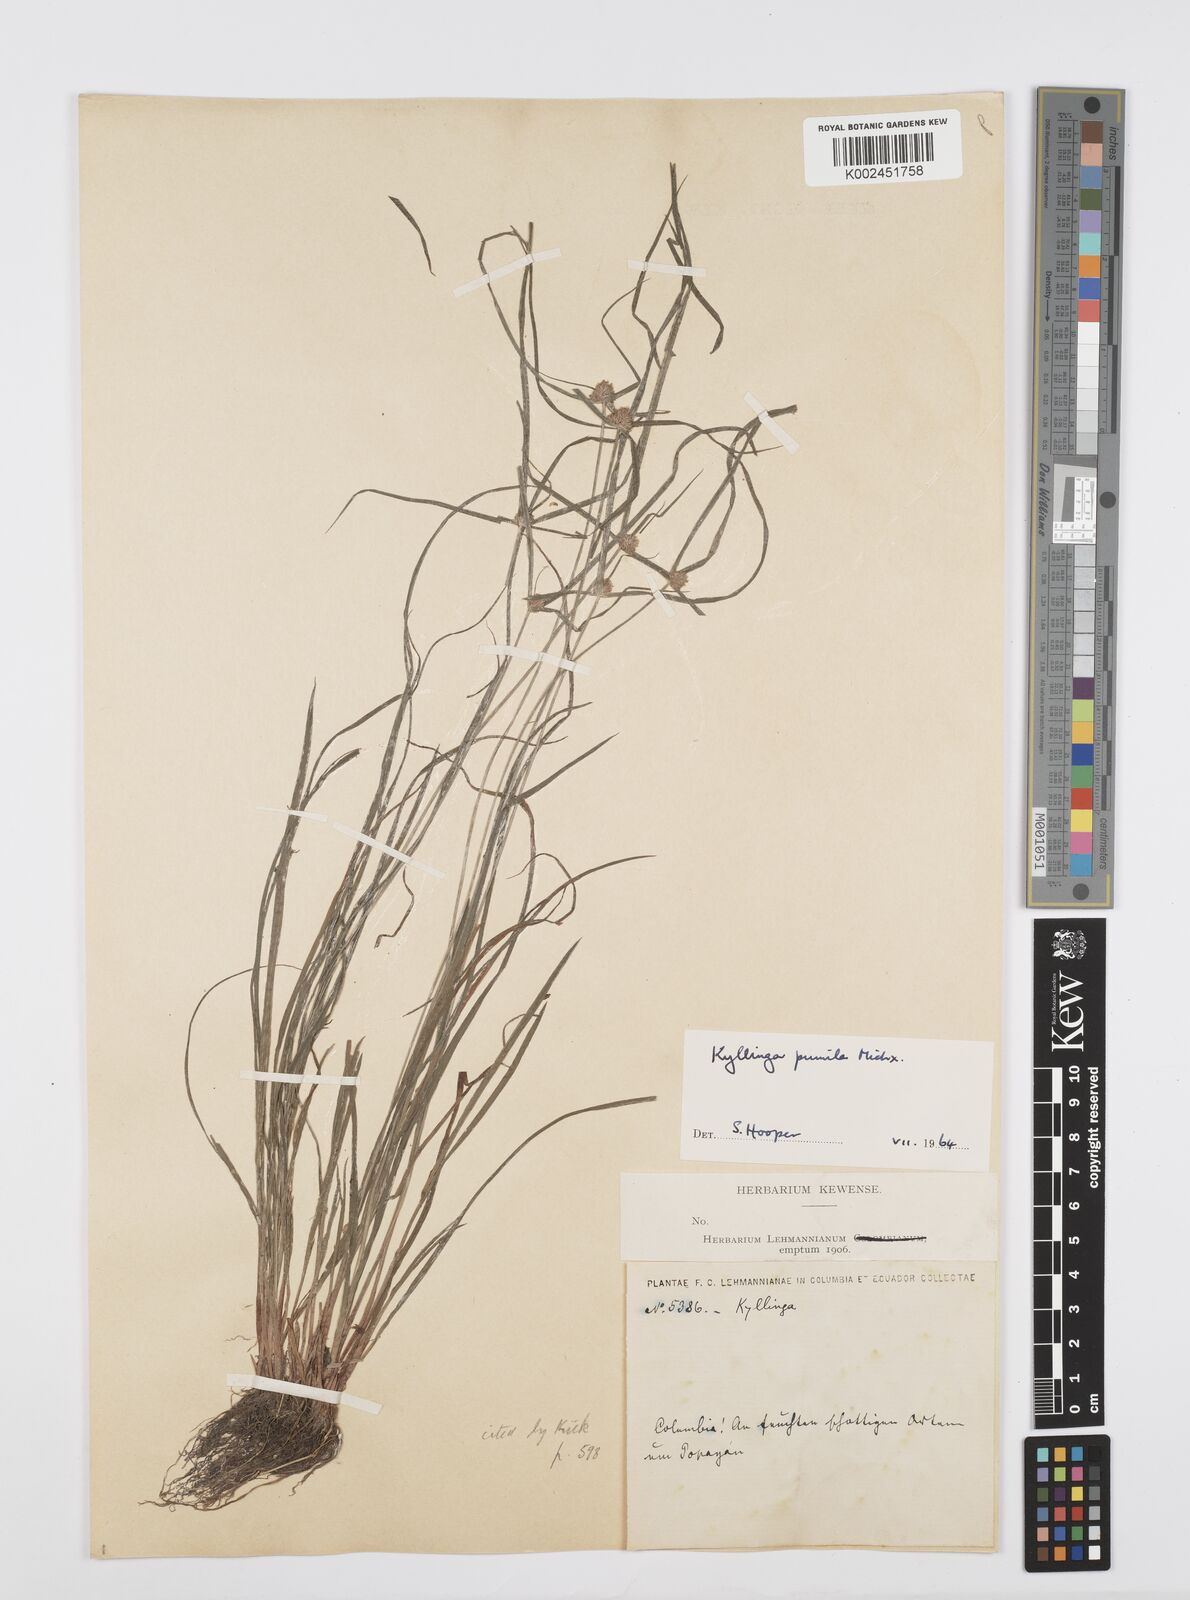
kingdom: Plantae
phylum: Tracheophyta
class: Liliopsida
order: Poales
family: Cyperaceae
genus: Cyperus
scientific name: Cyperus
